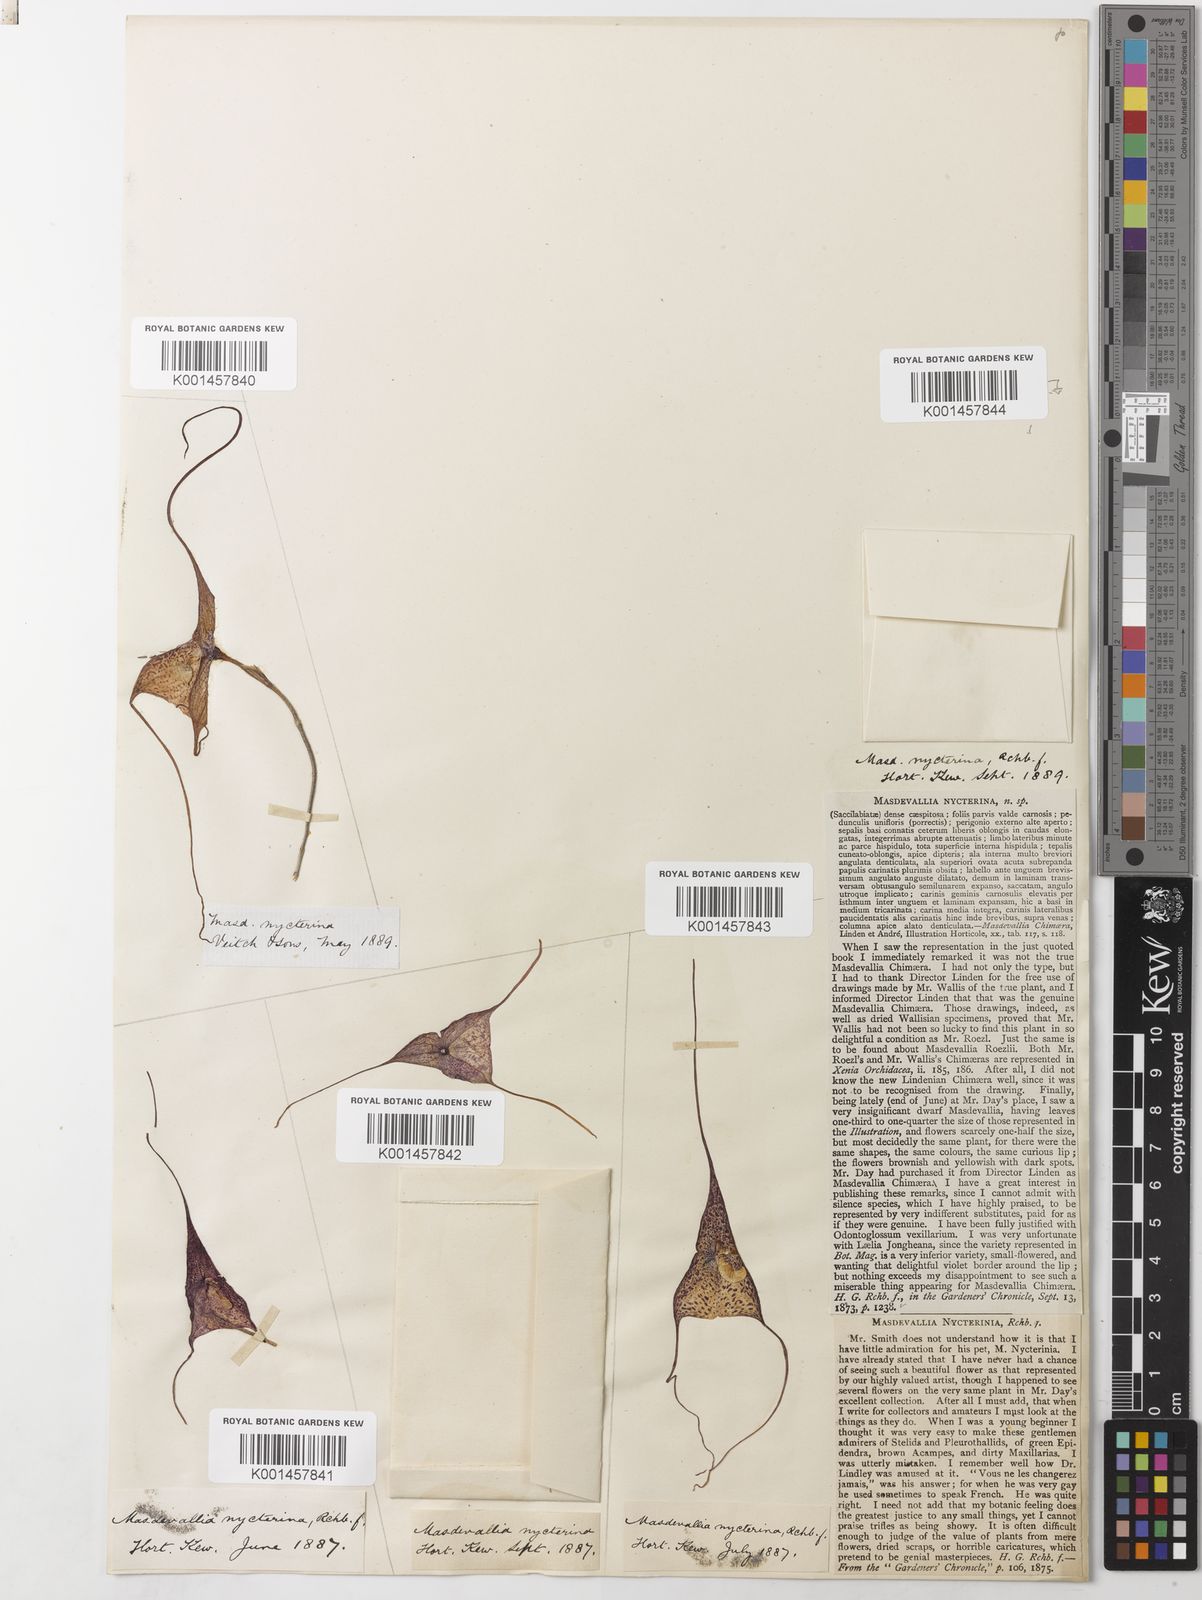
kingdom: Plantae
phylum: Tracheophyta
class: Liliopsida
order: Asparagales
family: Orchidaceae
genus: Dracula
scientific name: Dracula nycterina
